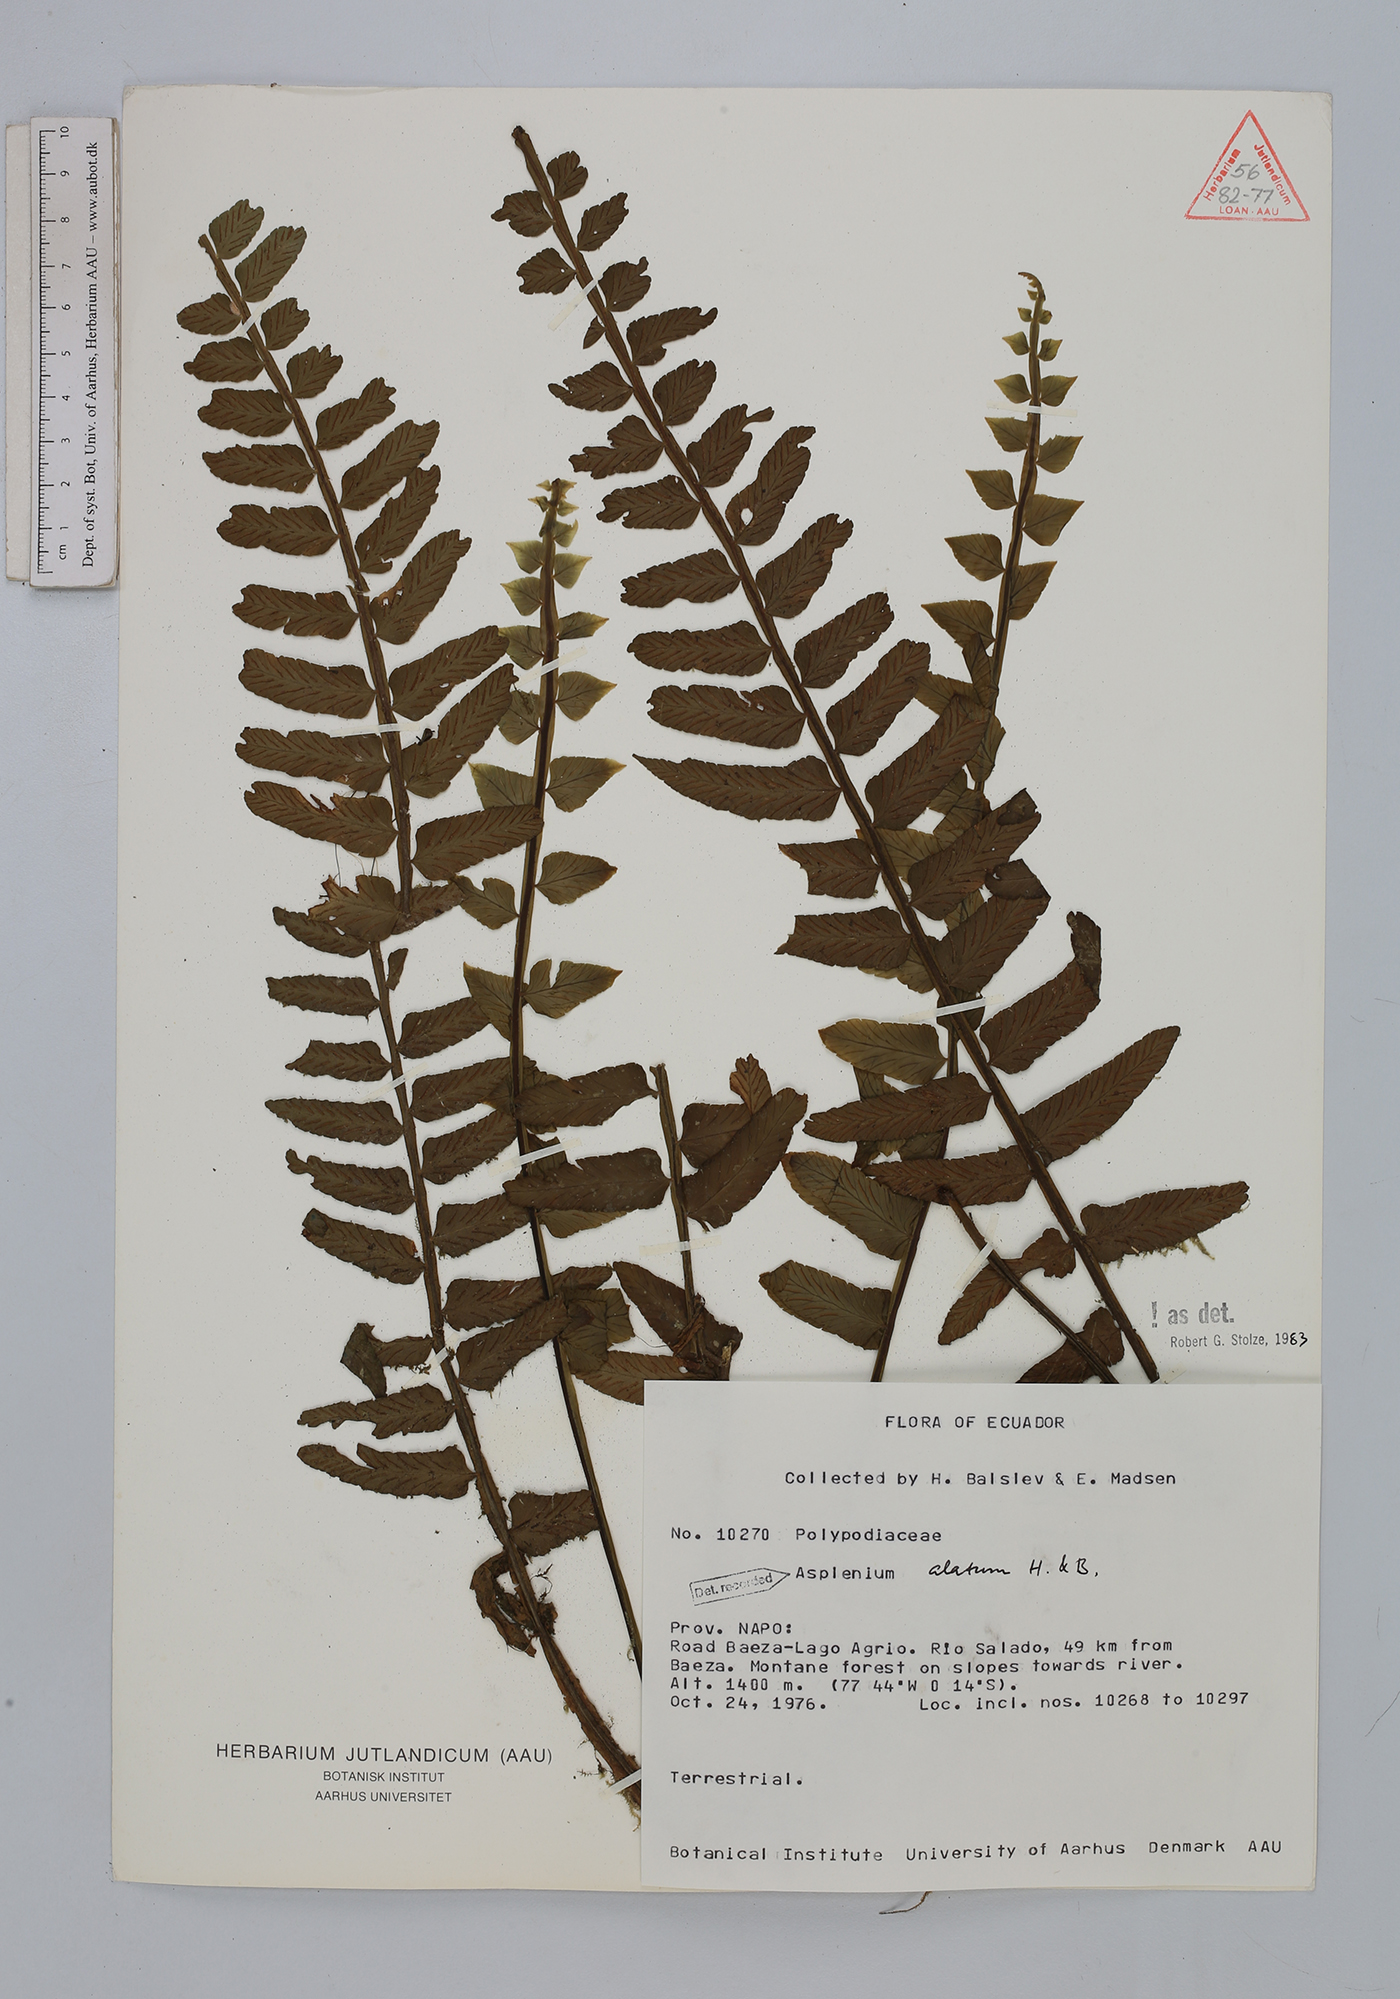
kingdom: Plantae
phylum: Tracheophyta
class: Polypodiopsida
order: Polypodiales
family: Aspleniaceae
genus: Asplenium
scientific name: Asplenium alatum
